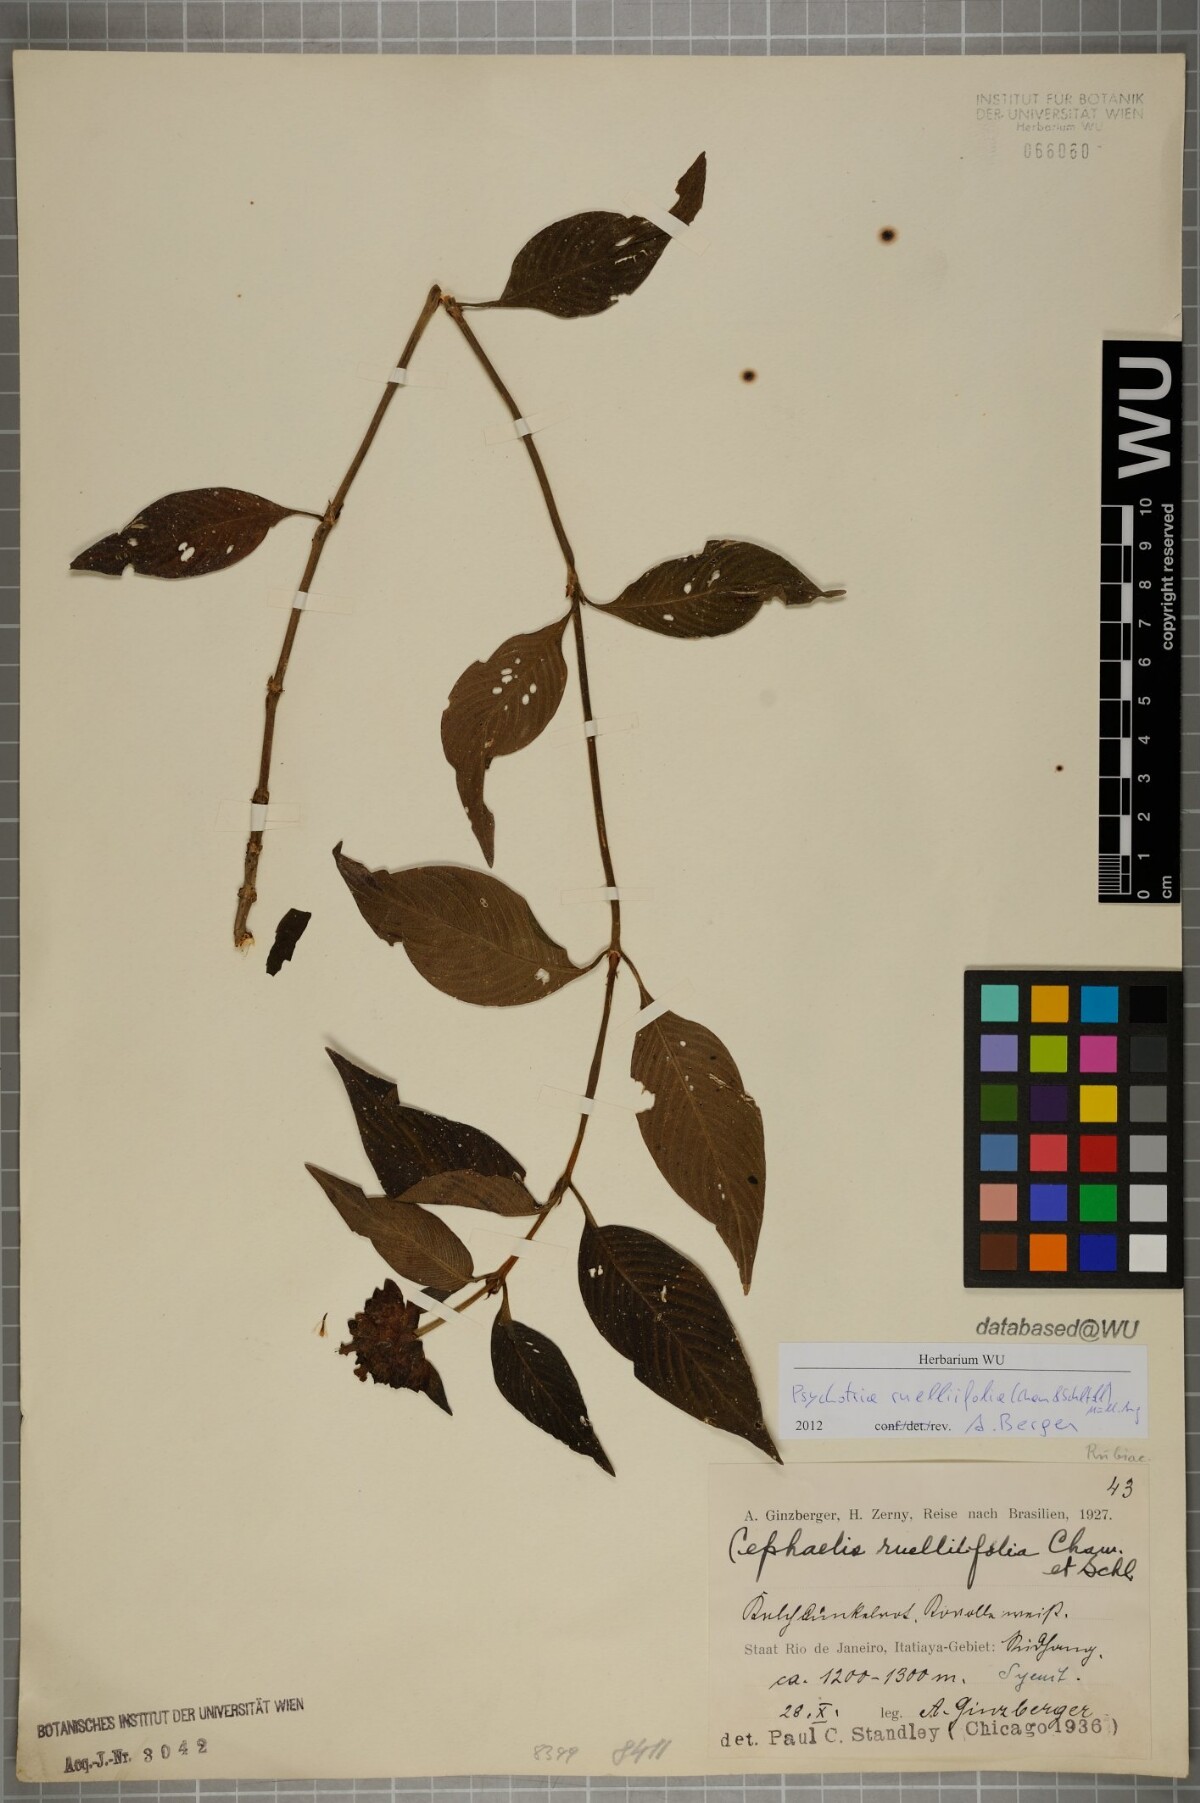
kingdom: Plantae
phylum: Tracheophyta
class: Magnoliopsida
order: Gentianales
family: Rubiaceae
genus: Palicourea
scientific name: Palicourea ruelliifolia
